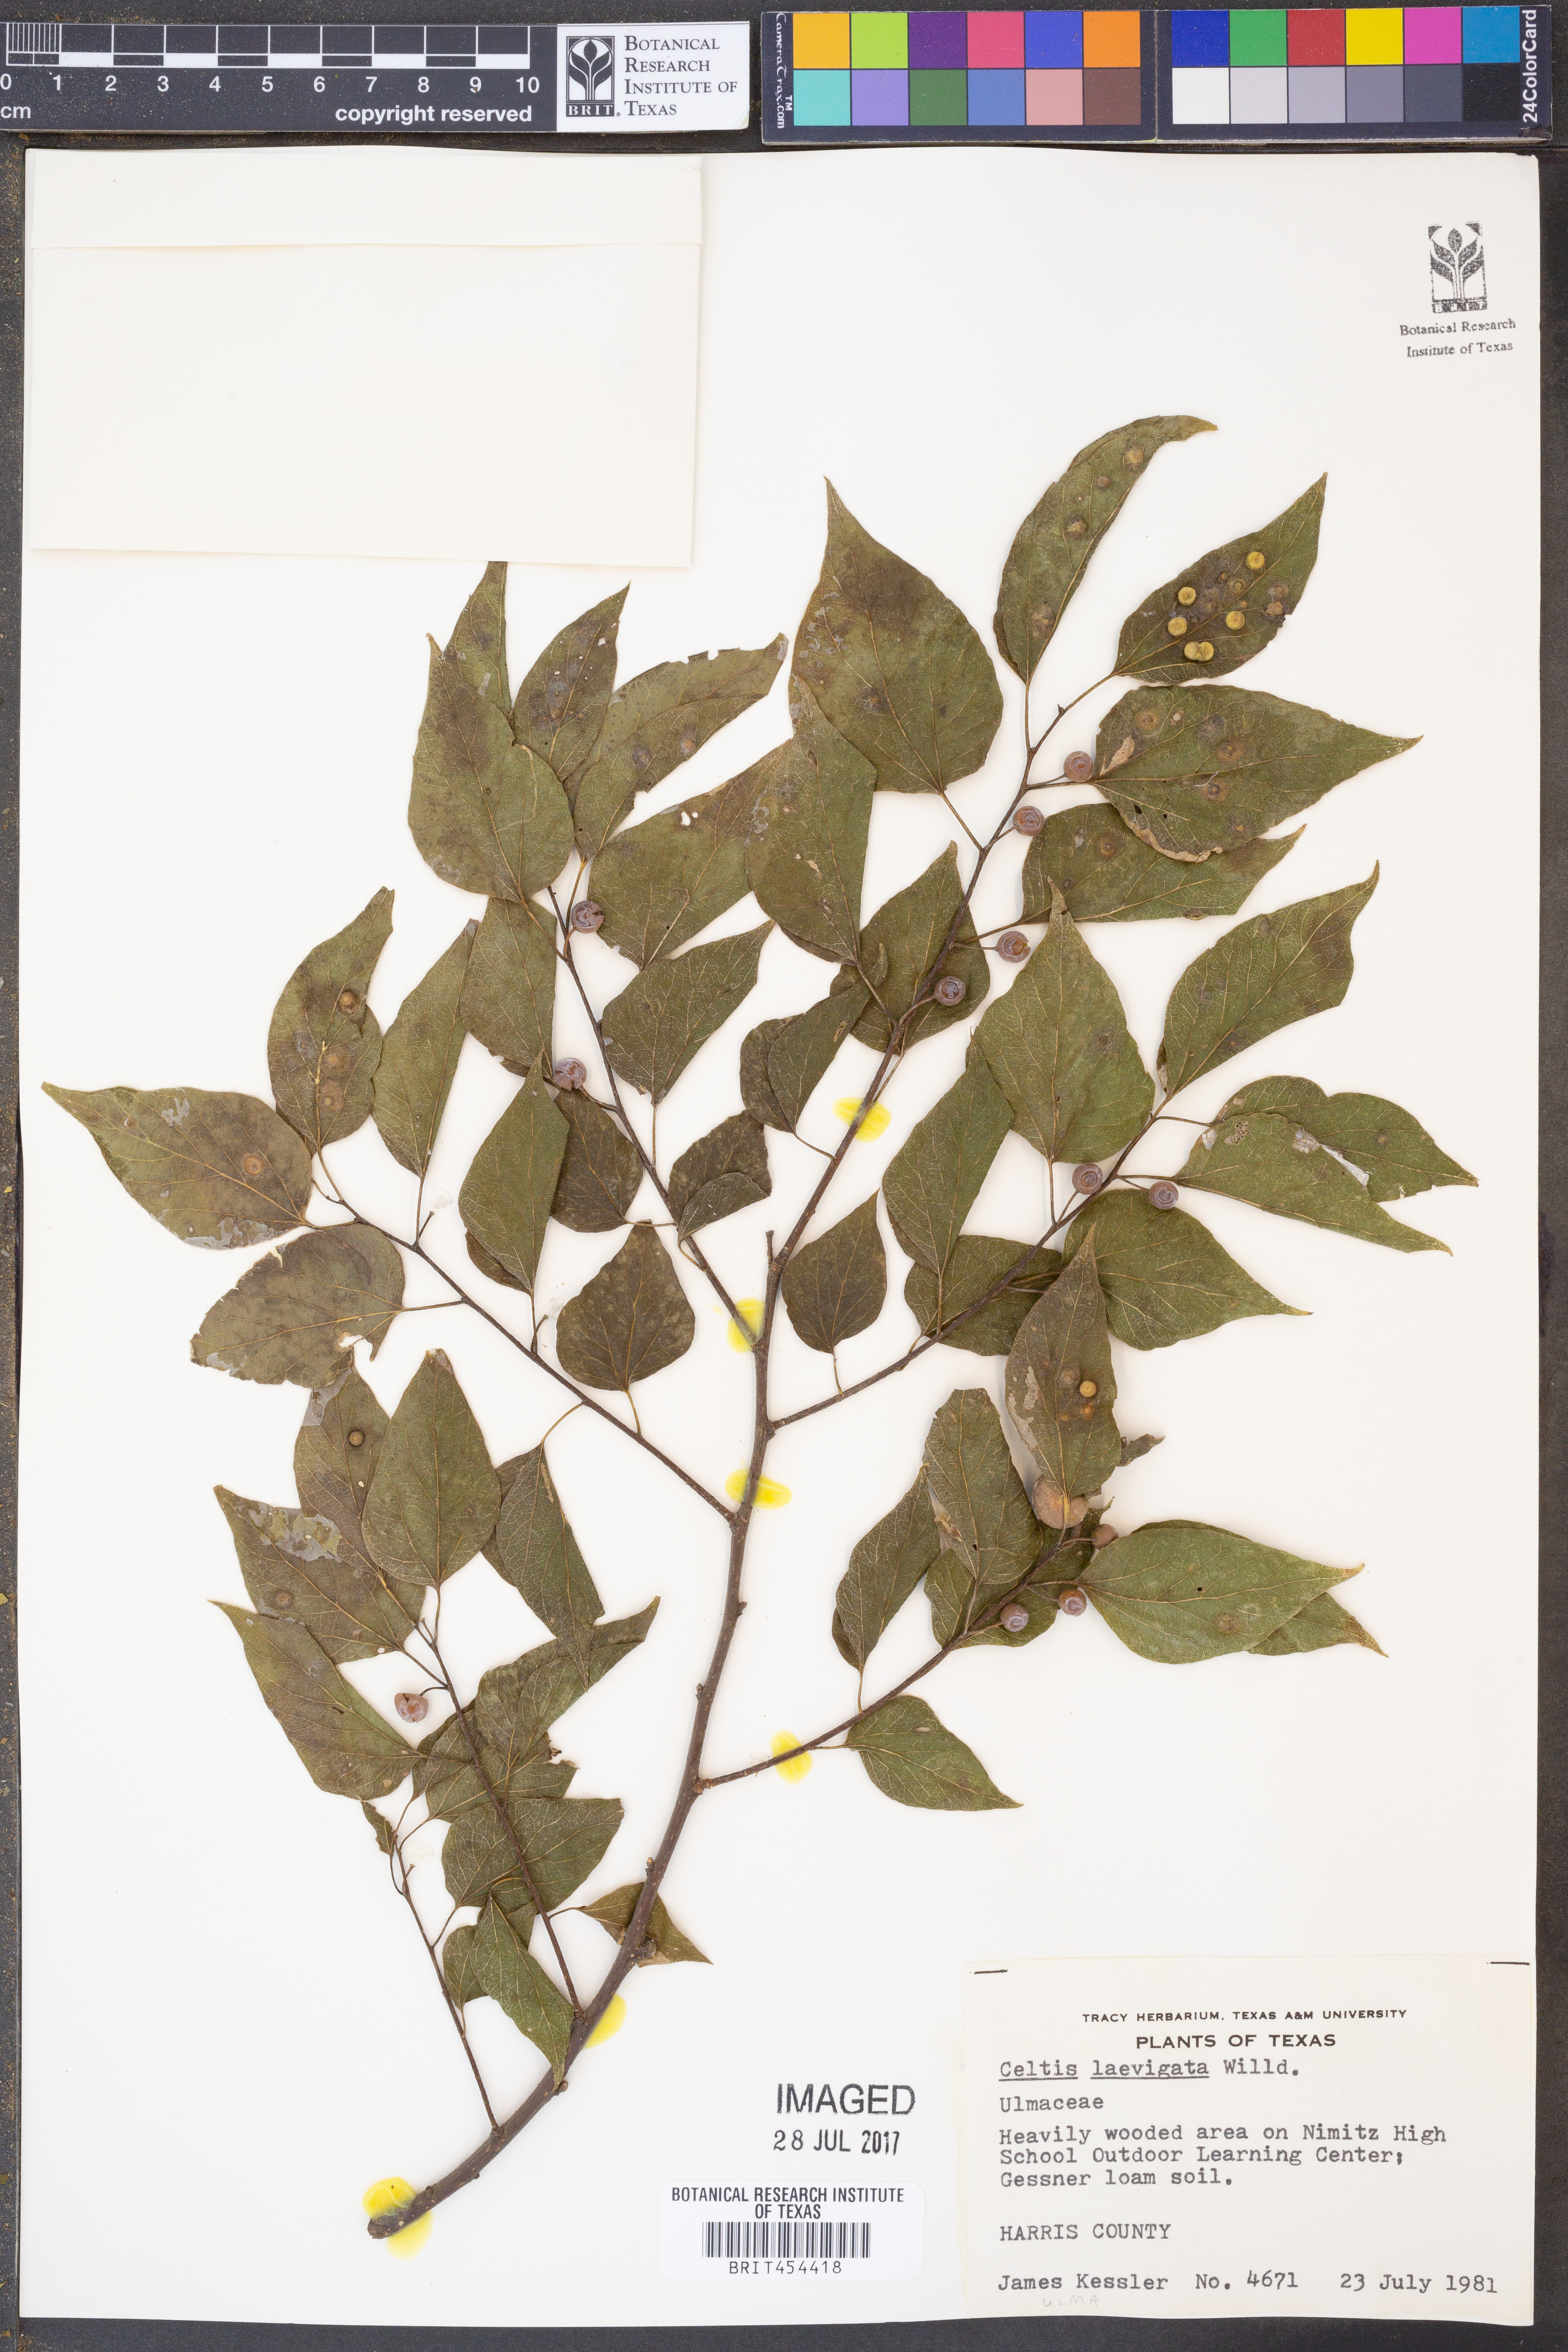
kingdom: Plantae
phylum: Tracheophyta
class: Magnoliopsida
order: Rosales
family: Cannabaceae
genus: Celtis
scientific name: Celtis laevigata
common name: Sugarberry
